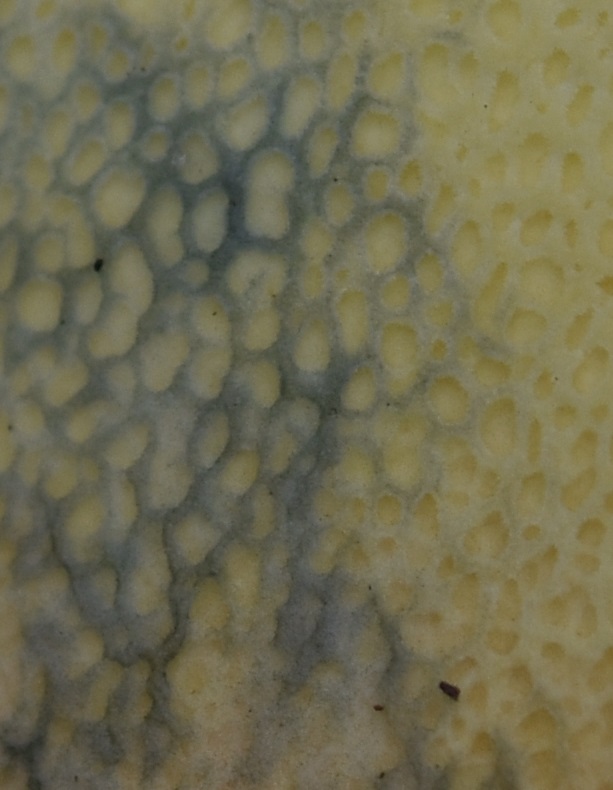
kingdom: Fungi
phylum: Basidiomycota
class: Agaricomycetes
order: Boletales
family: Boletaceae
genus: Butyriboletus
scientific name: Butyriboletus fuscoroseus
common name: brunrosa rørhat
